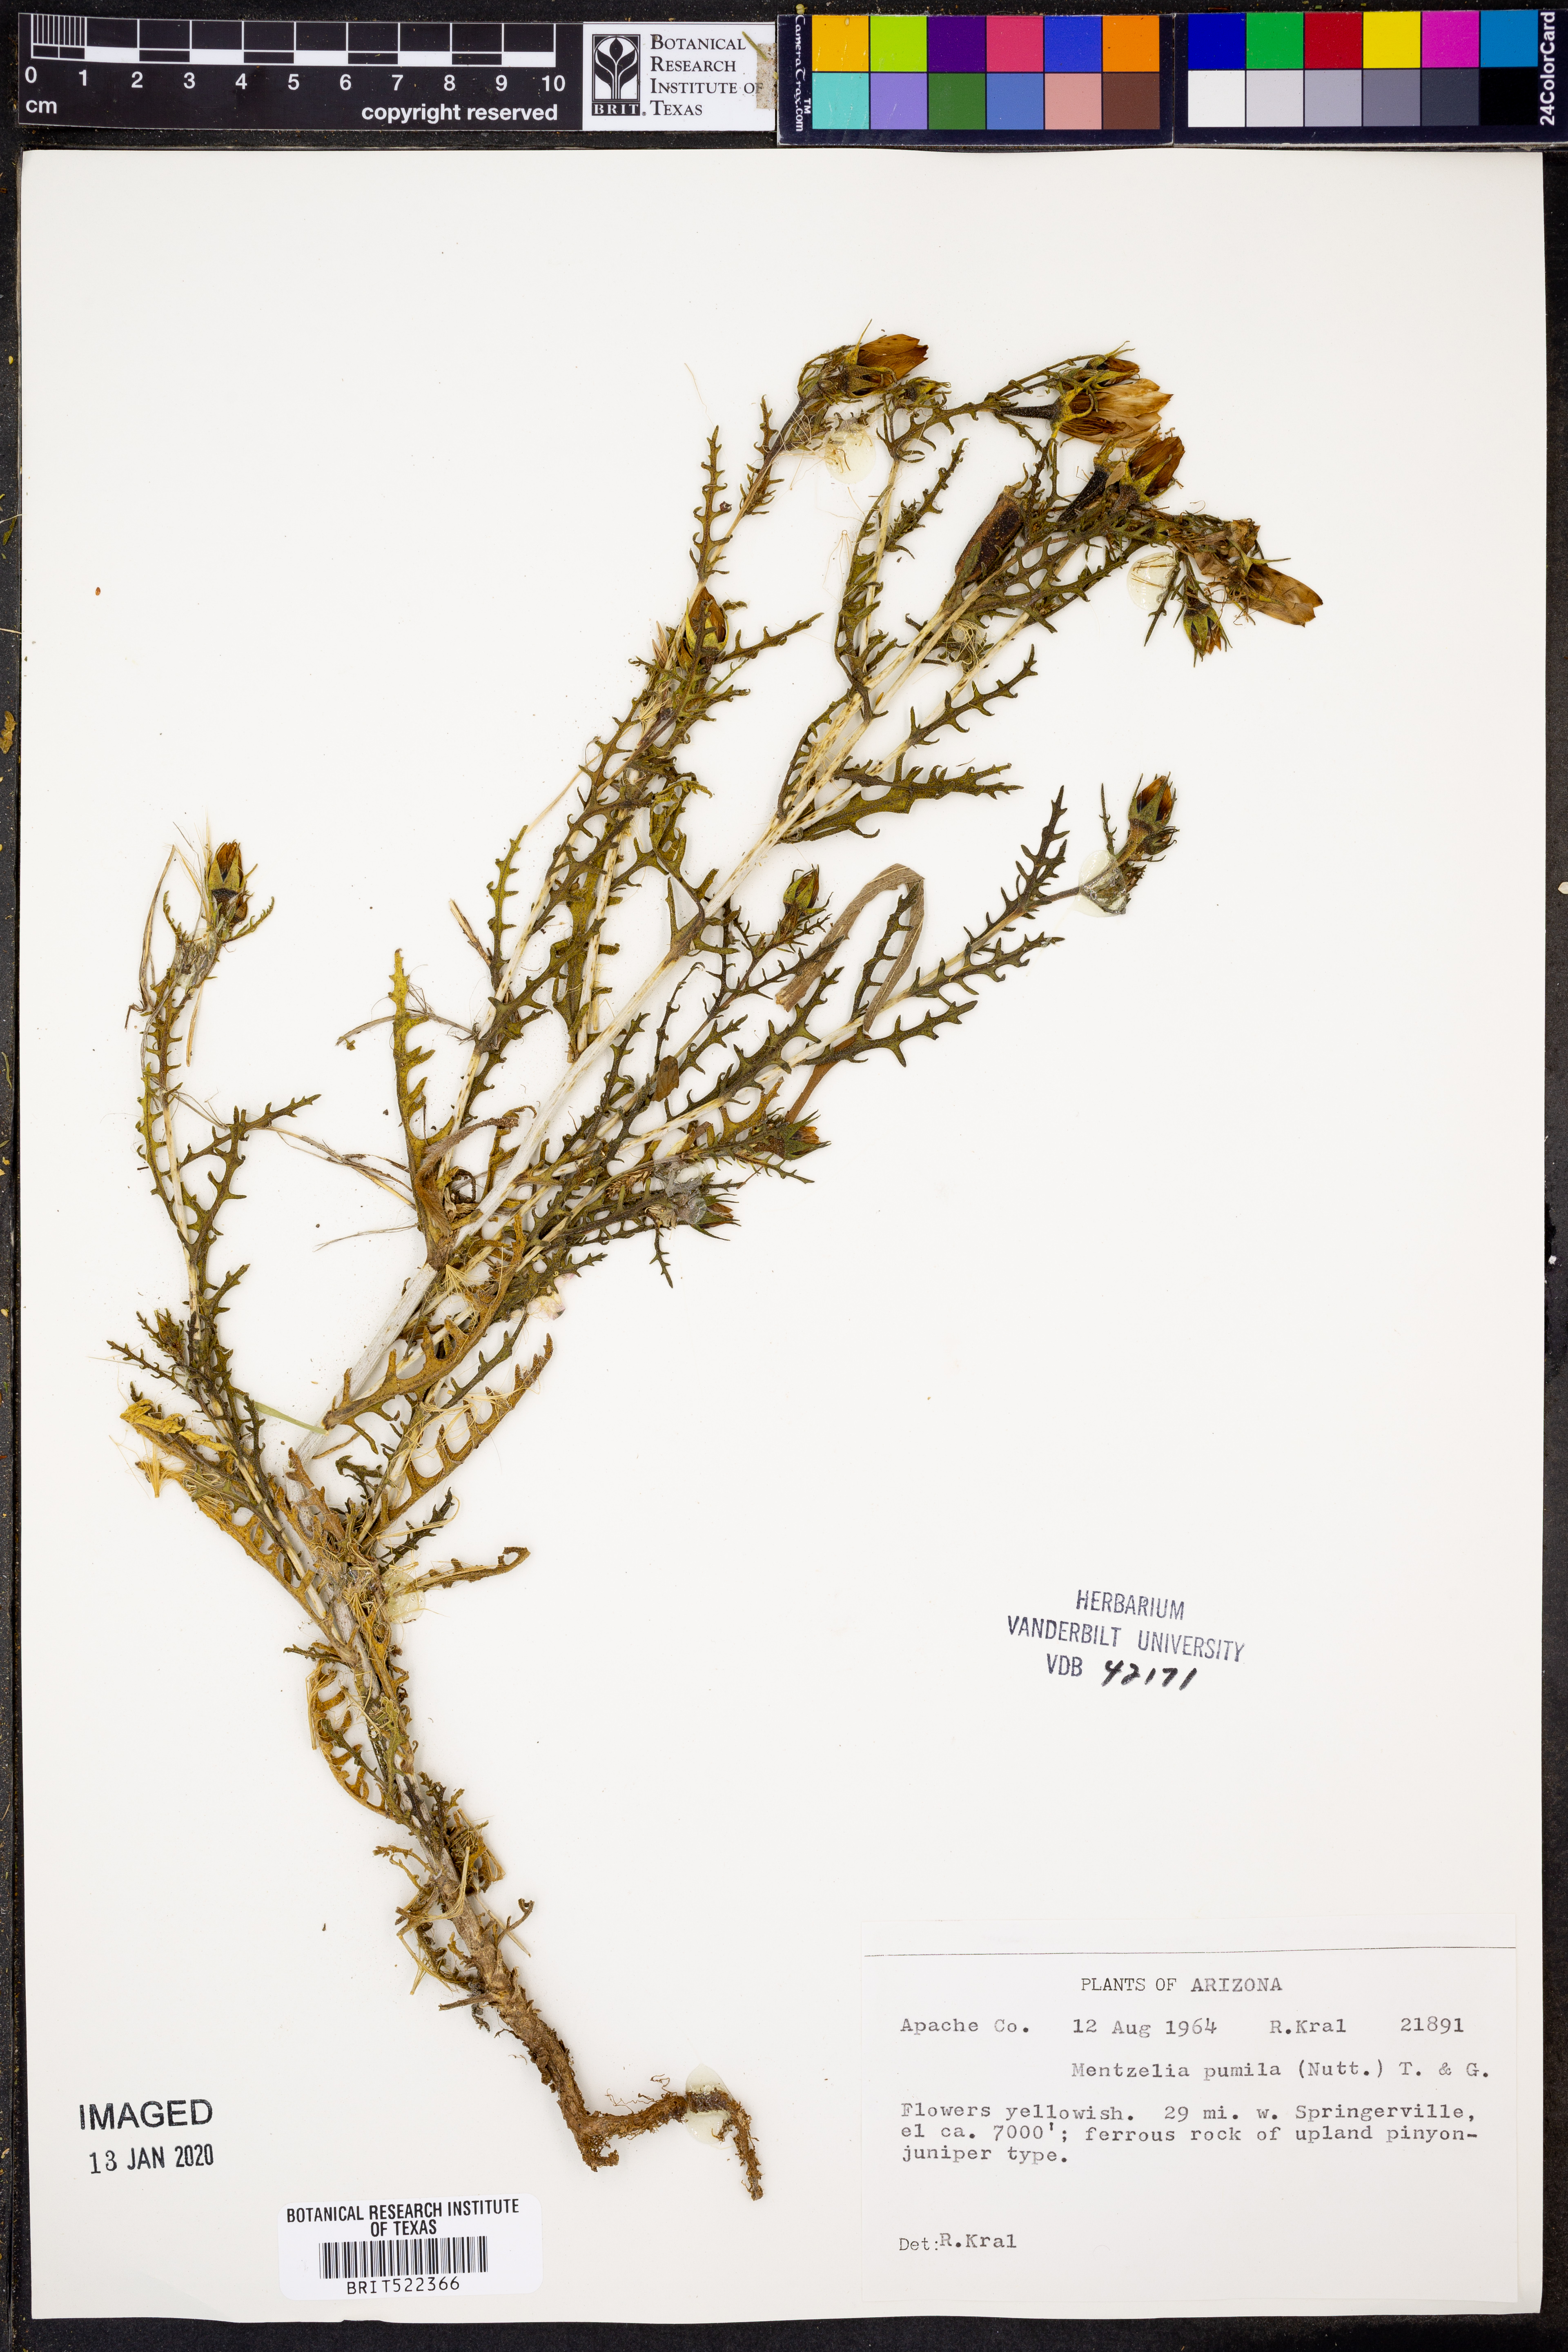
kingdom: Plantae
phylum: Tracheophyta
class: Magnoliopsida
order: Cornales
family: Loasaceae
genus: Mentzelia
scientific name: Mentzelia pumila
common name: Wyoming stickleaf
